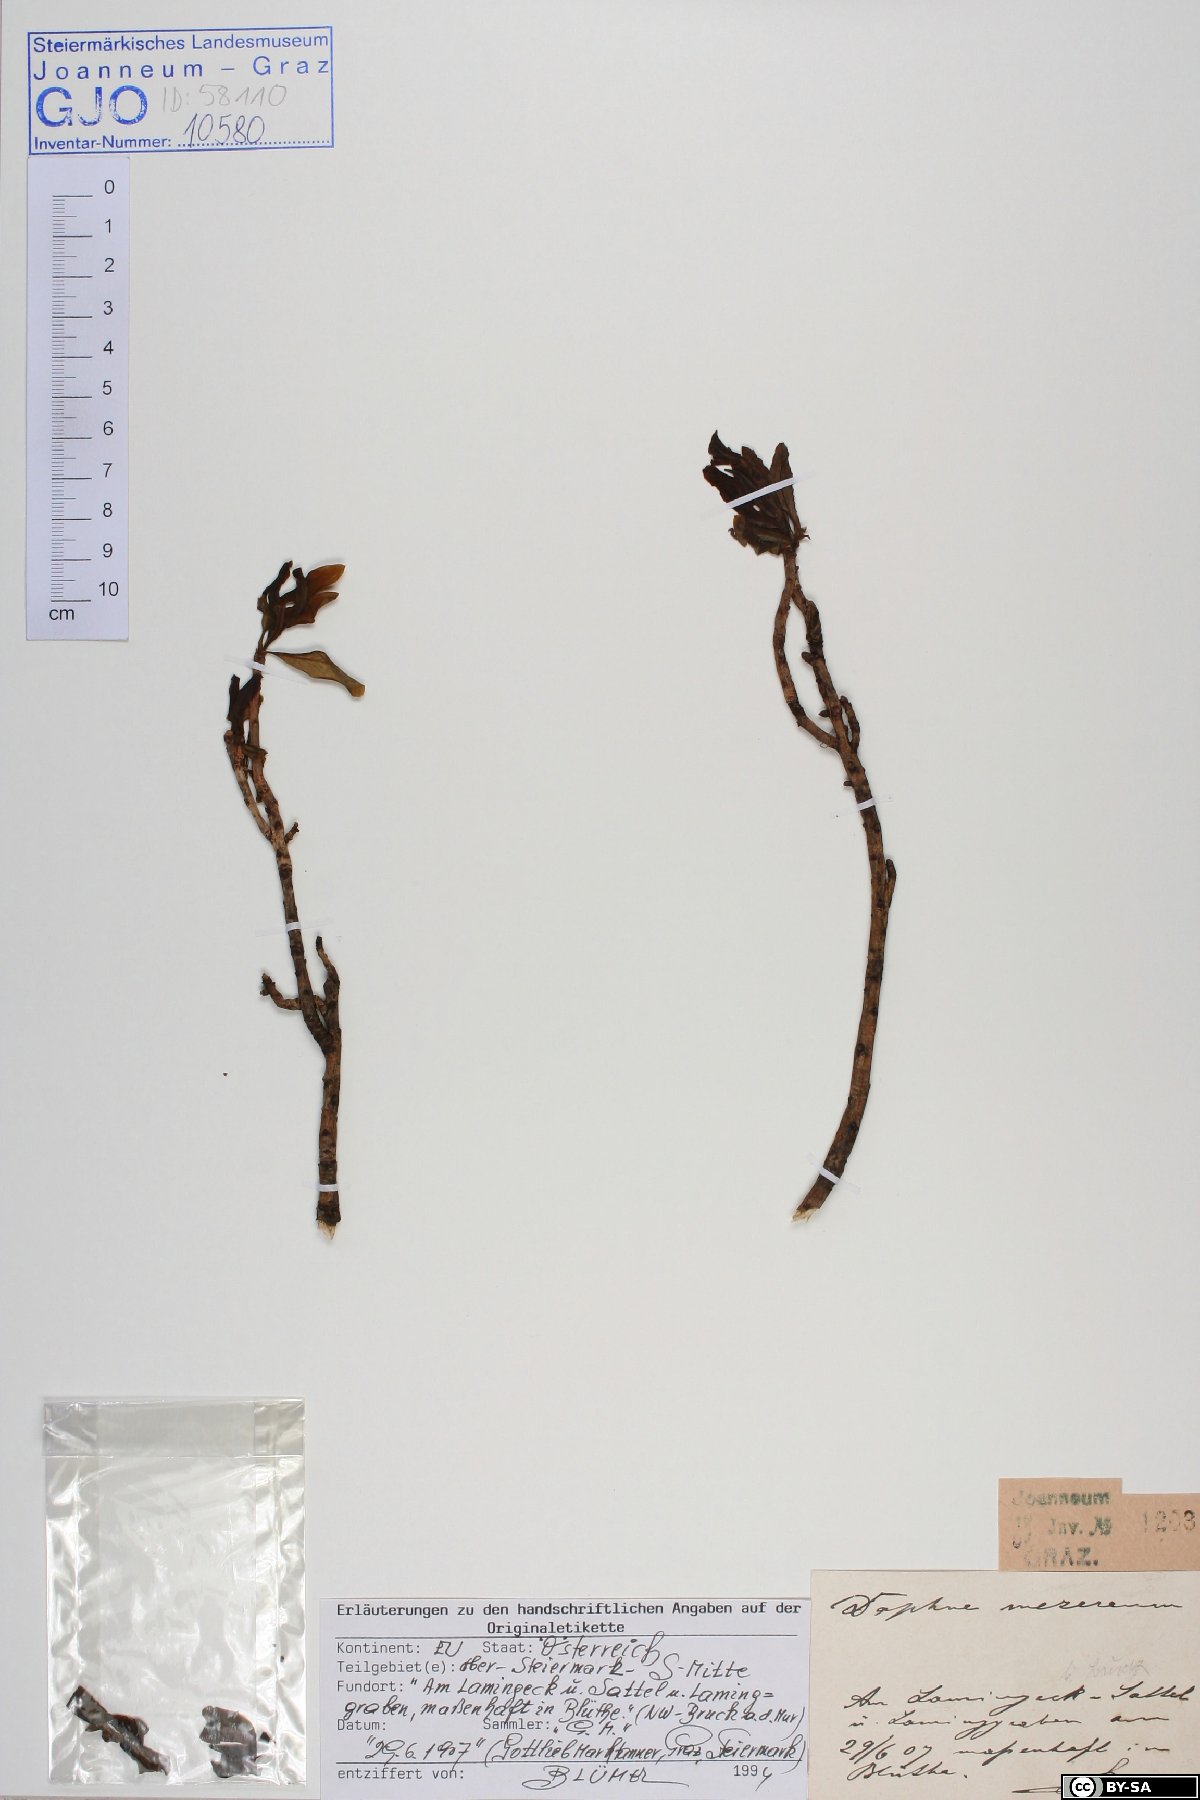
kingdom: Plantae
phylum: Tracheophyta
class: Magnoliopsida
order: Malvales
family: Thymelaeaceae
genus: Daphne
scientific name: Daphne mezereum
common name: Mezereon
